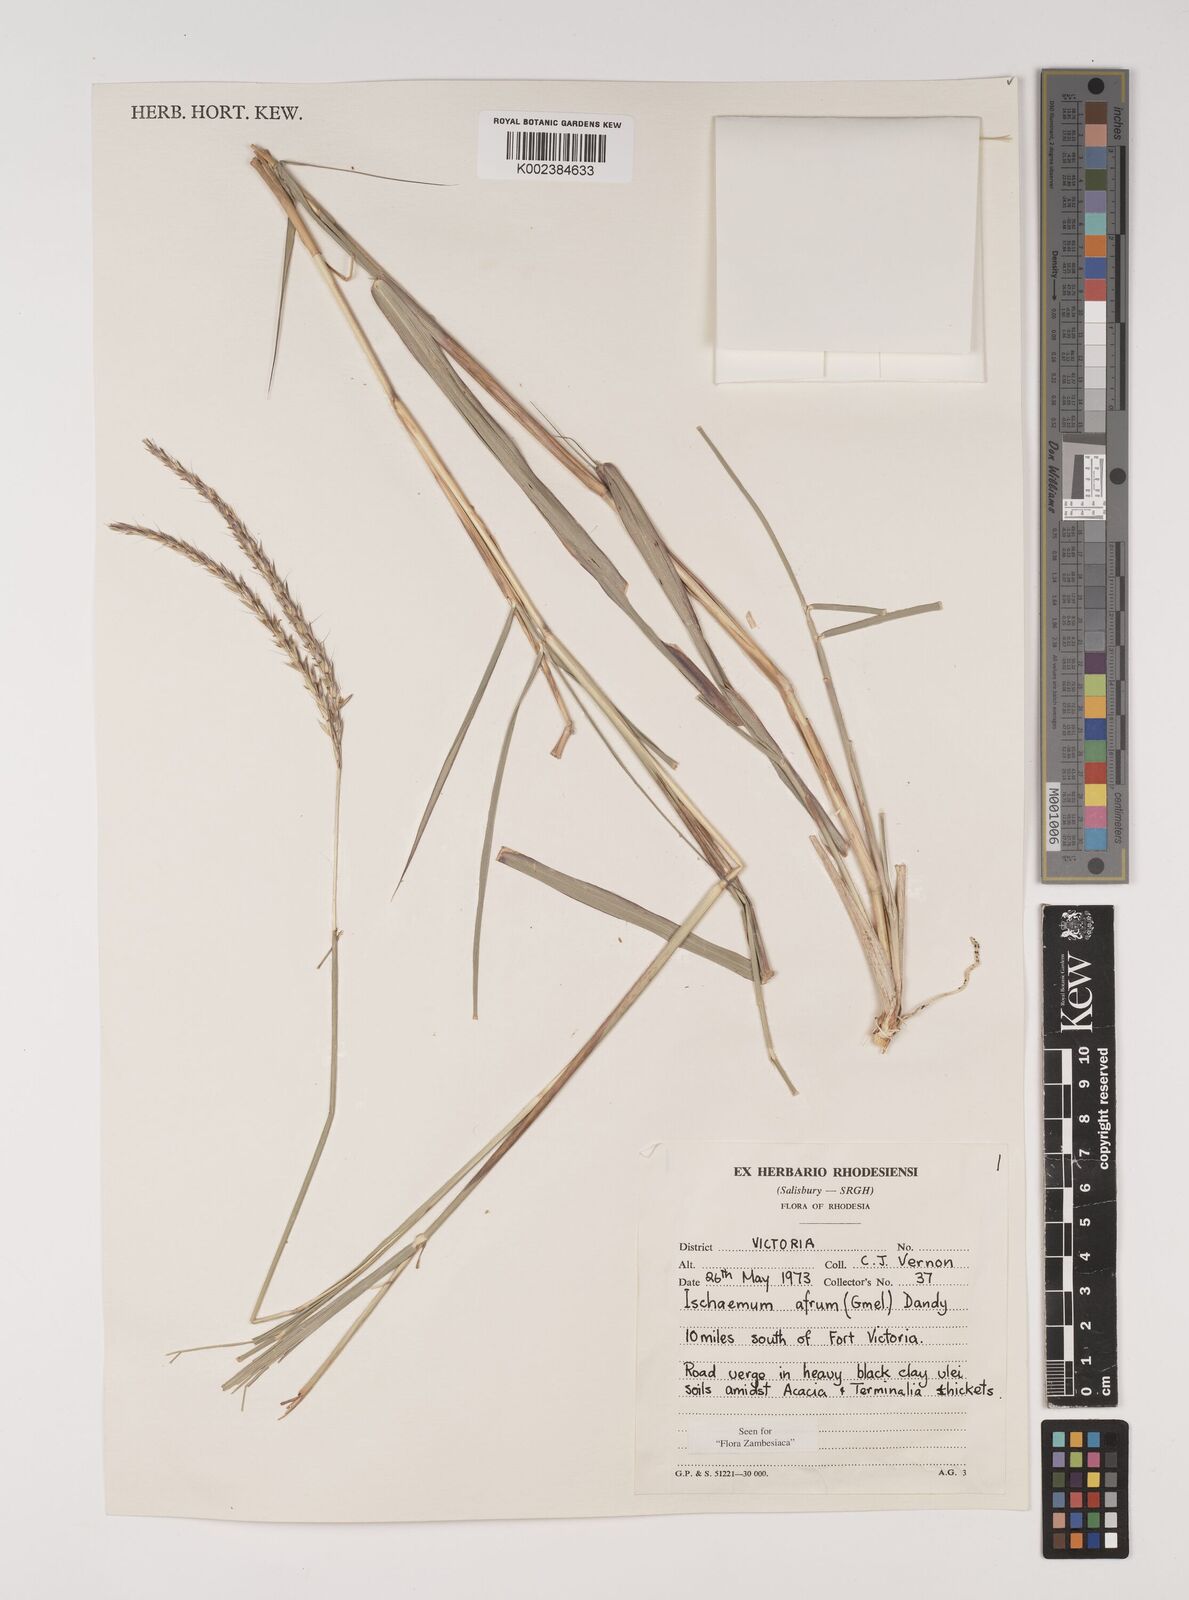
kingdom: Plantae
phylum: Tracheophyta
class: Liliopsida
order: Poales
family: Poaceae
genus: Ischaemum
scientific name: Ischaemum afrum
